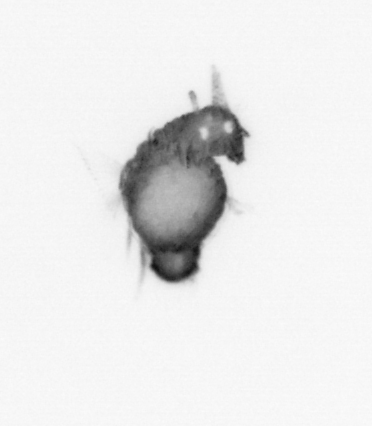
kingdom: Animalia
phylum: Annelida
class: Polychaeta
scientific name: Polychaeta
